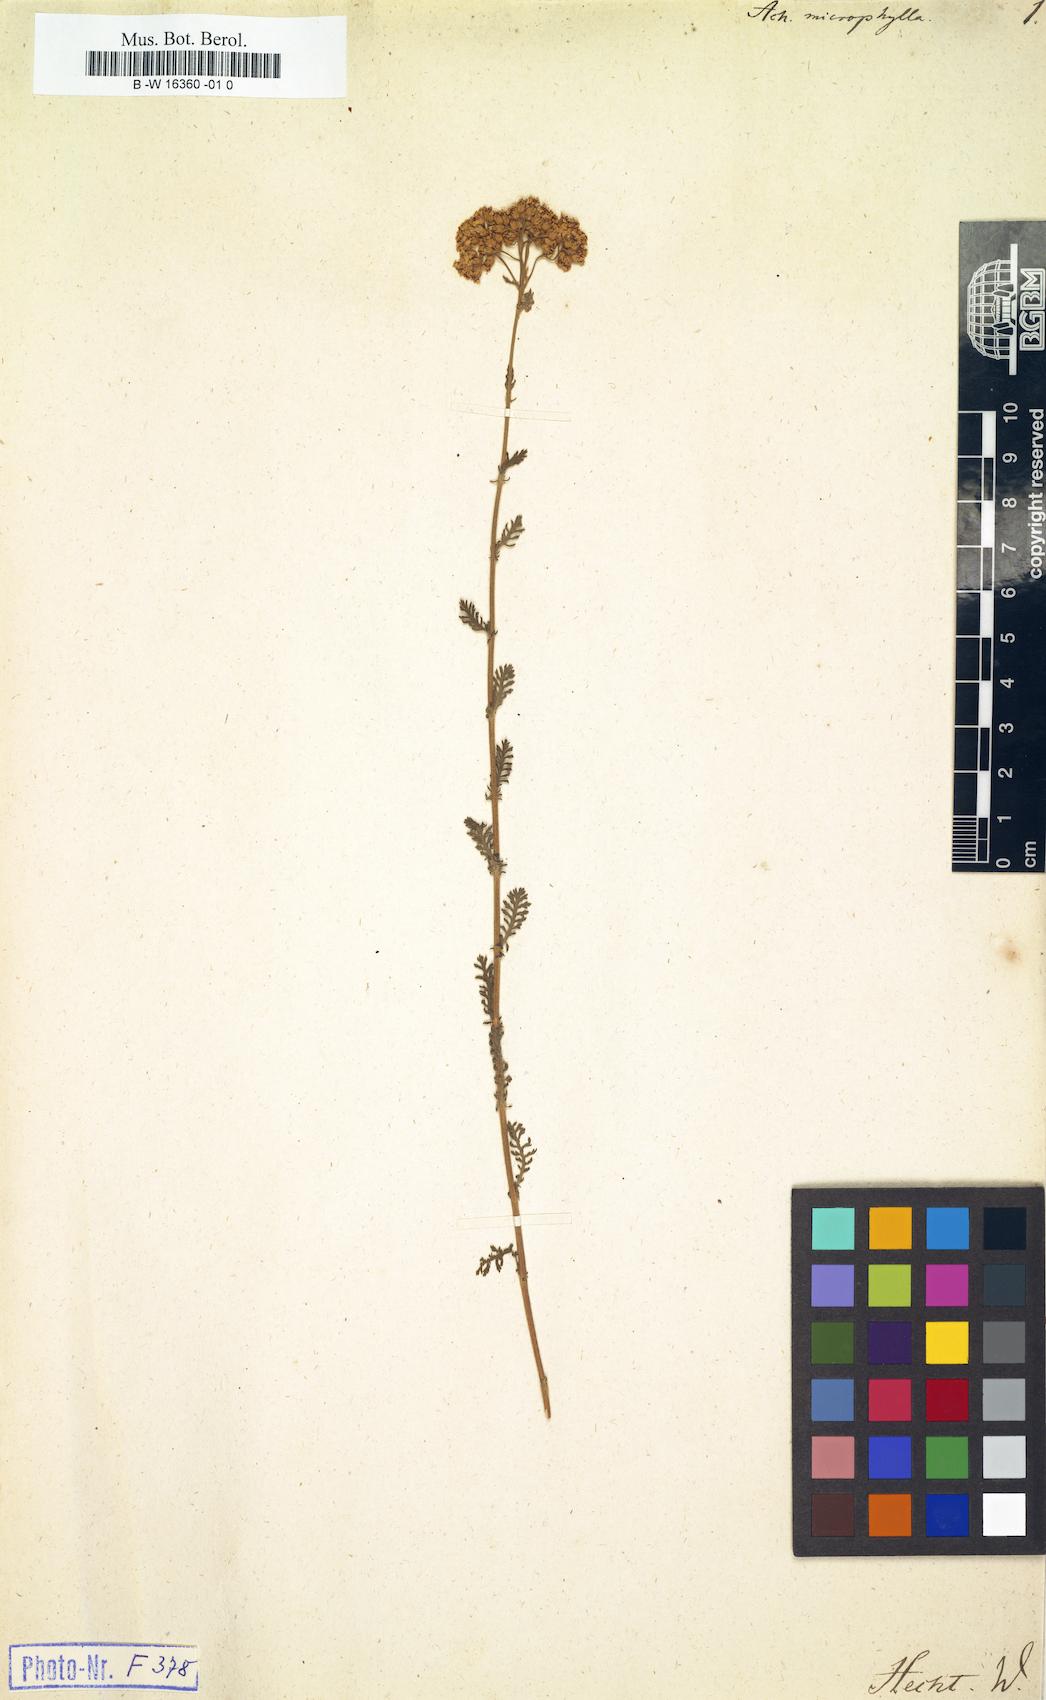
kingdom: Plantae
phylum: Tracheophyta
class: Magnoliopsida
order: Asterales
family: Asteraceae
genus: Achillea
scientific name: Achillea odorata
